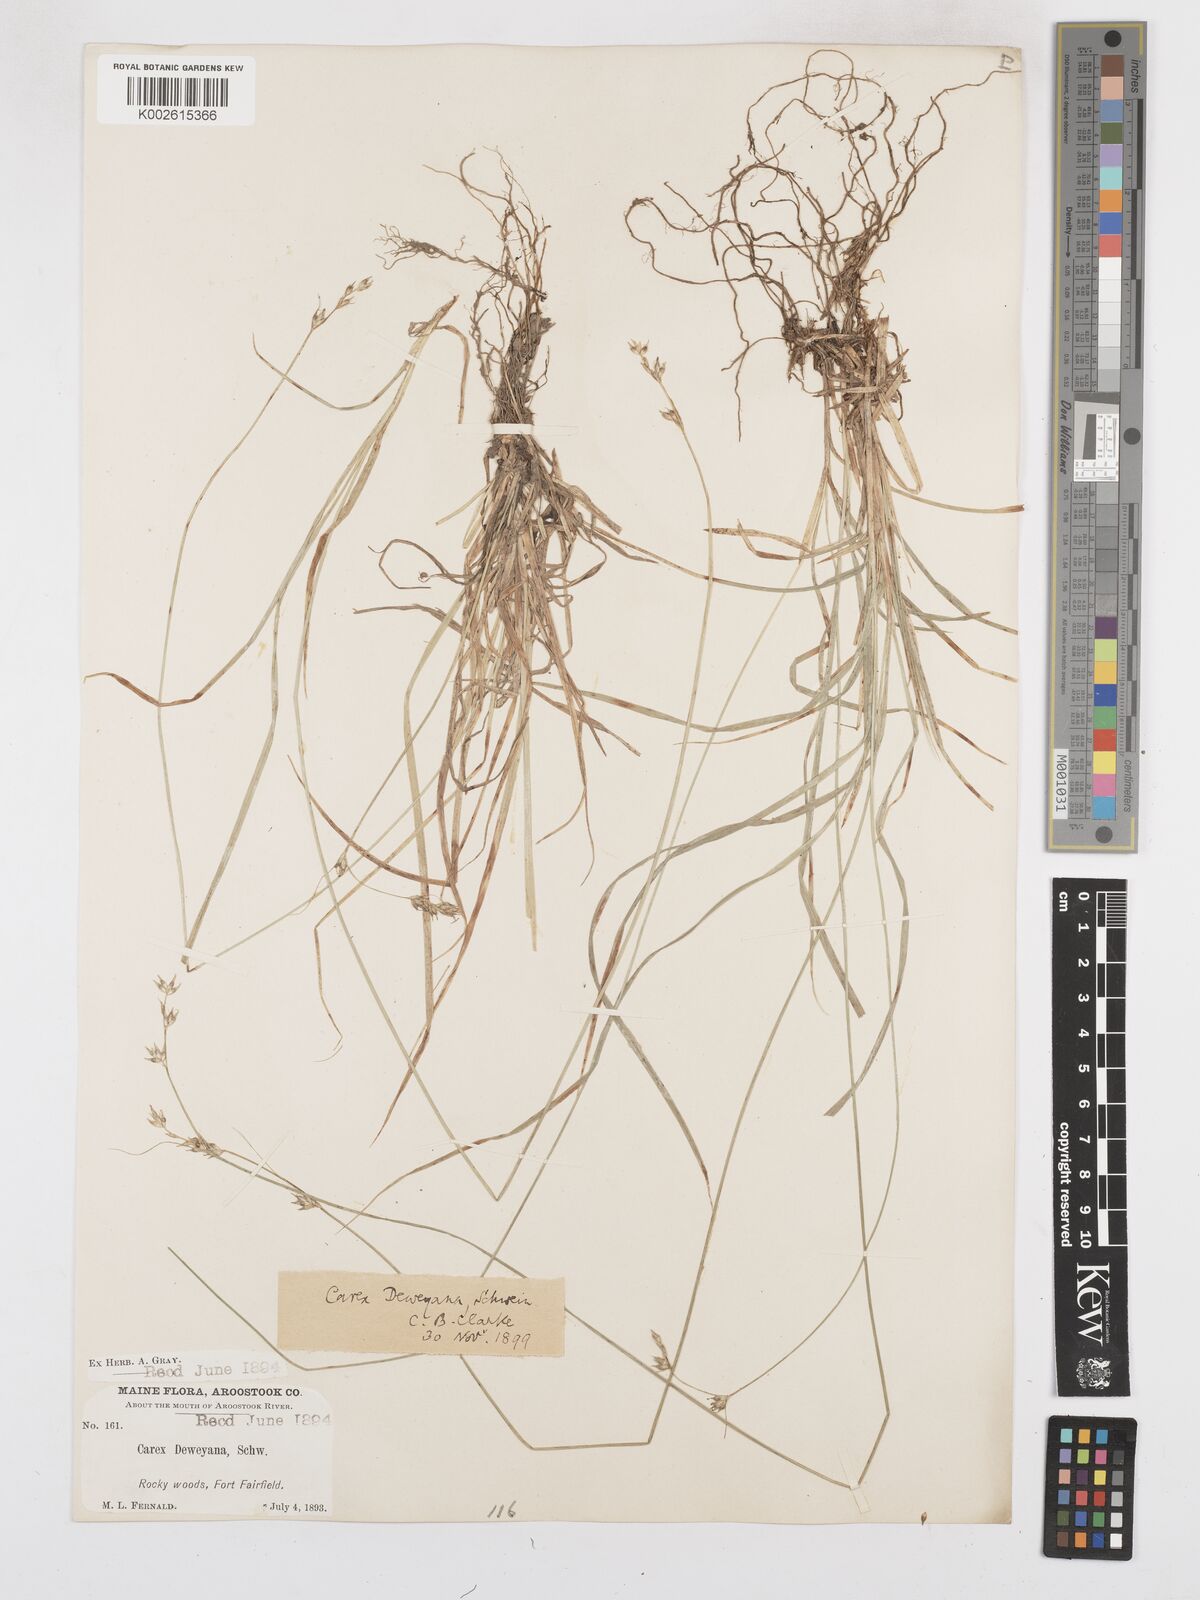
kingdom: Plantae
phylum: Tracheophyta
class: Liliopsida
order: Poales
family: Cyperaceae
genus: Carex
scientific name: Carex deweyana
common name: Dewey's sedge
